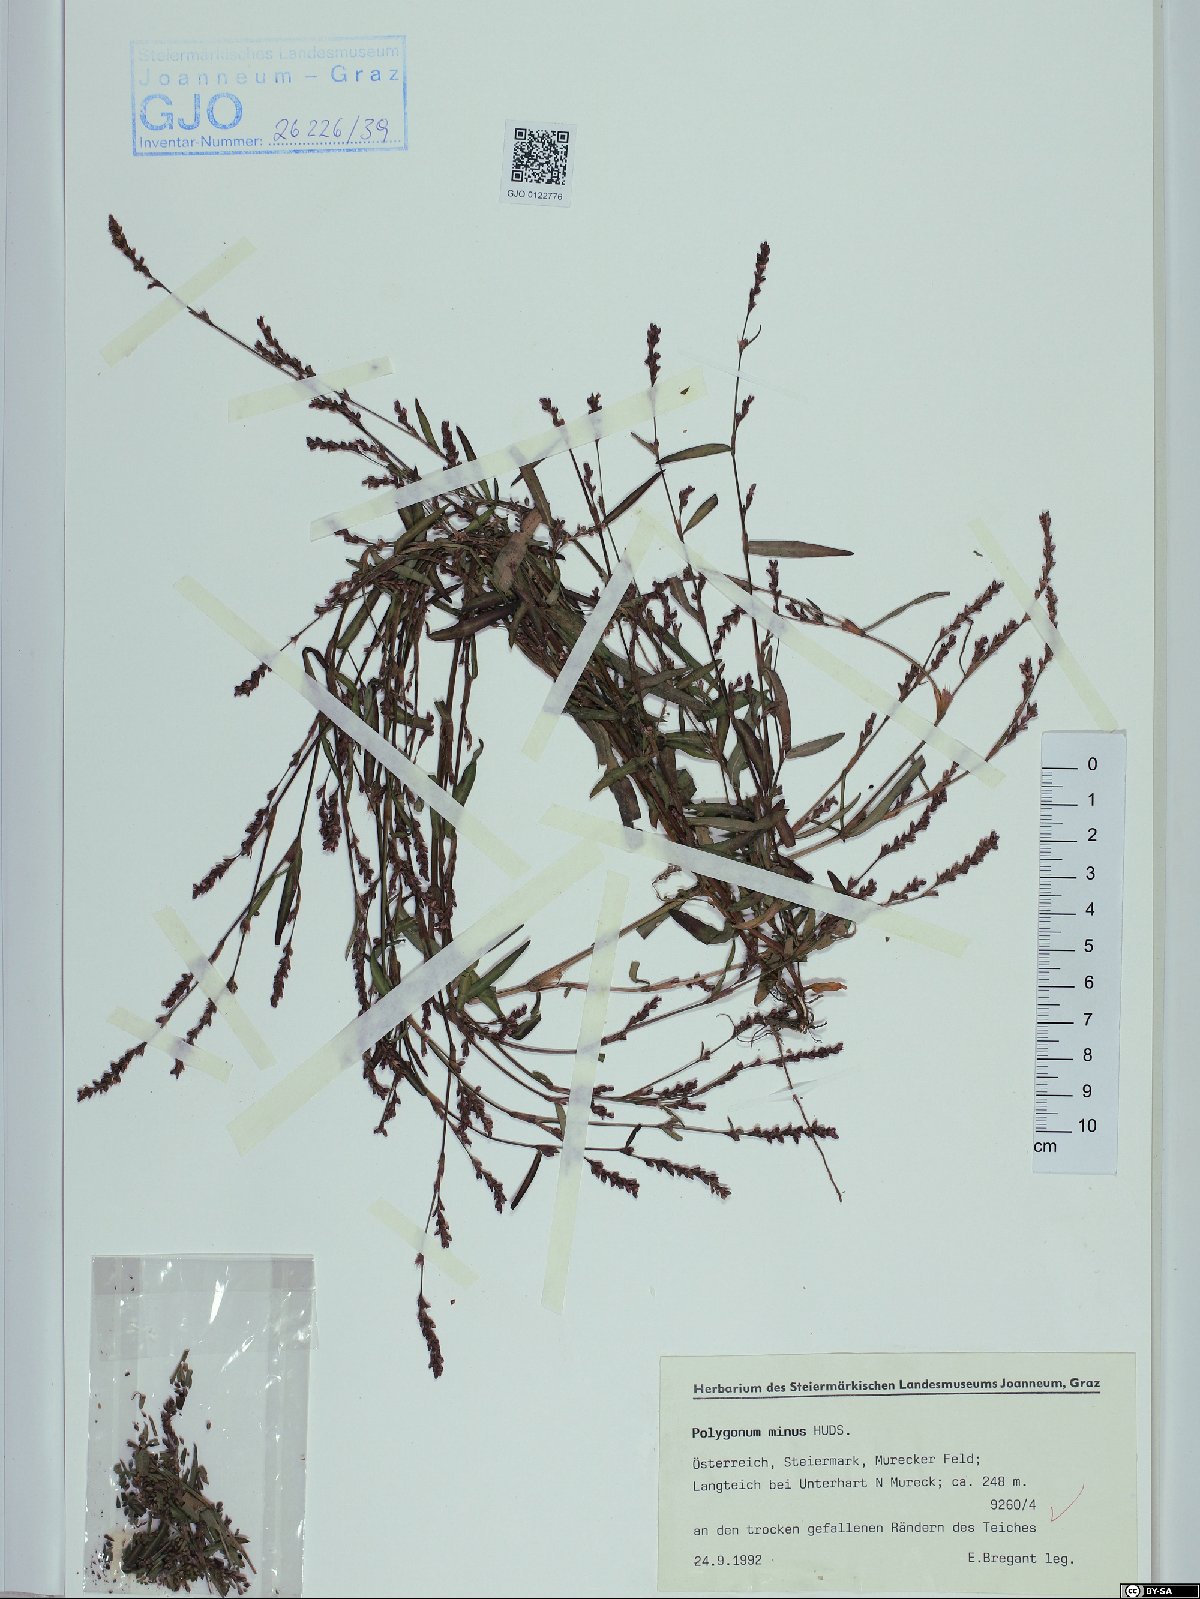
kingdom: Plantae
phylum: Tracheophyta
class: Magnoliopsida
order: Caryophyllales
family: Polygonaceae
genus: Persicaria
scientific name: Persicaria minor
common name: Small water-pepper
